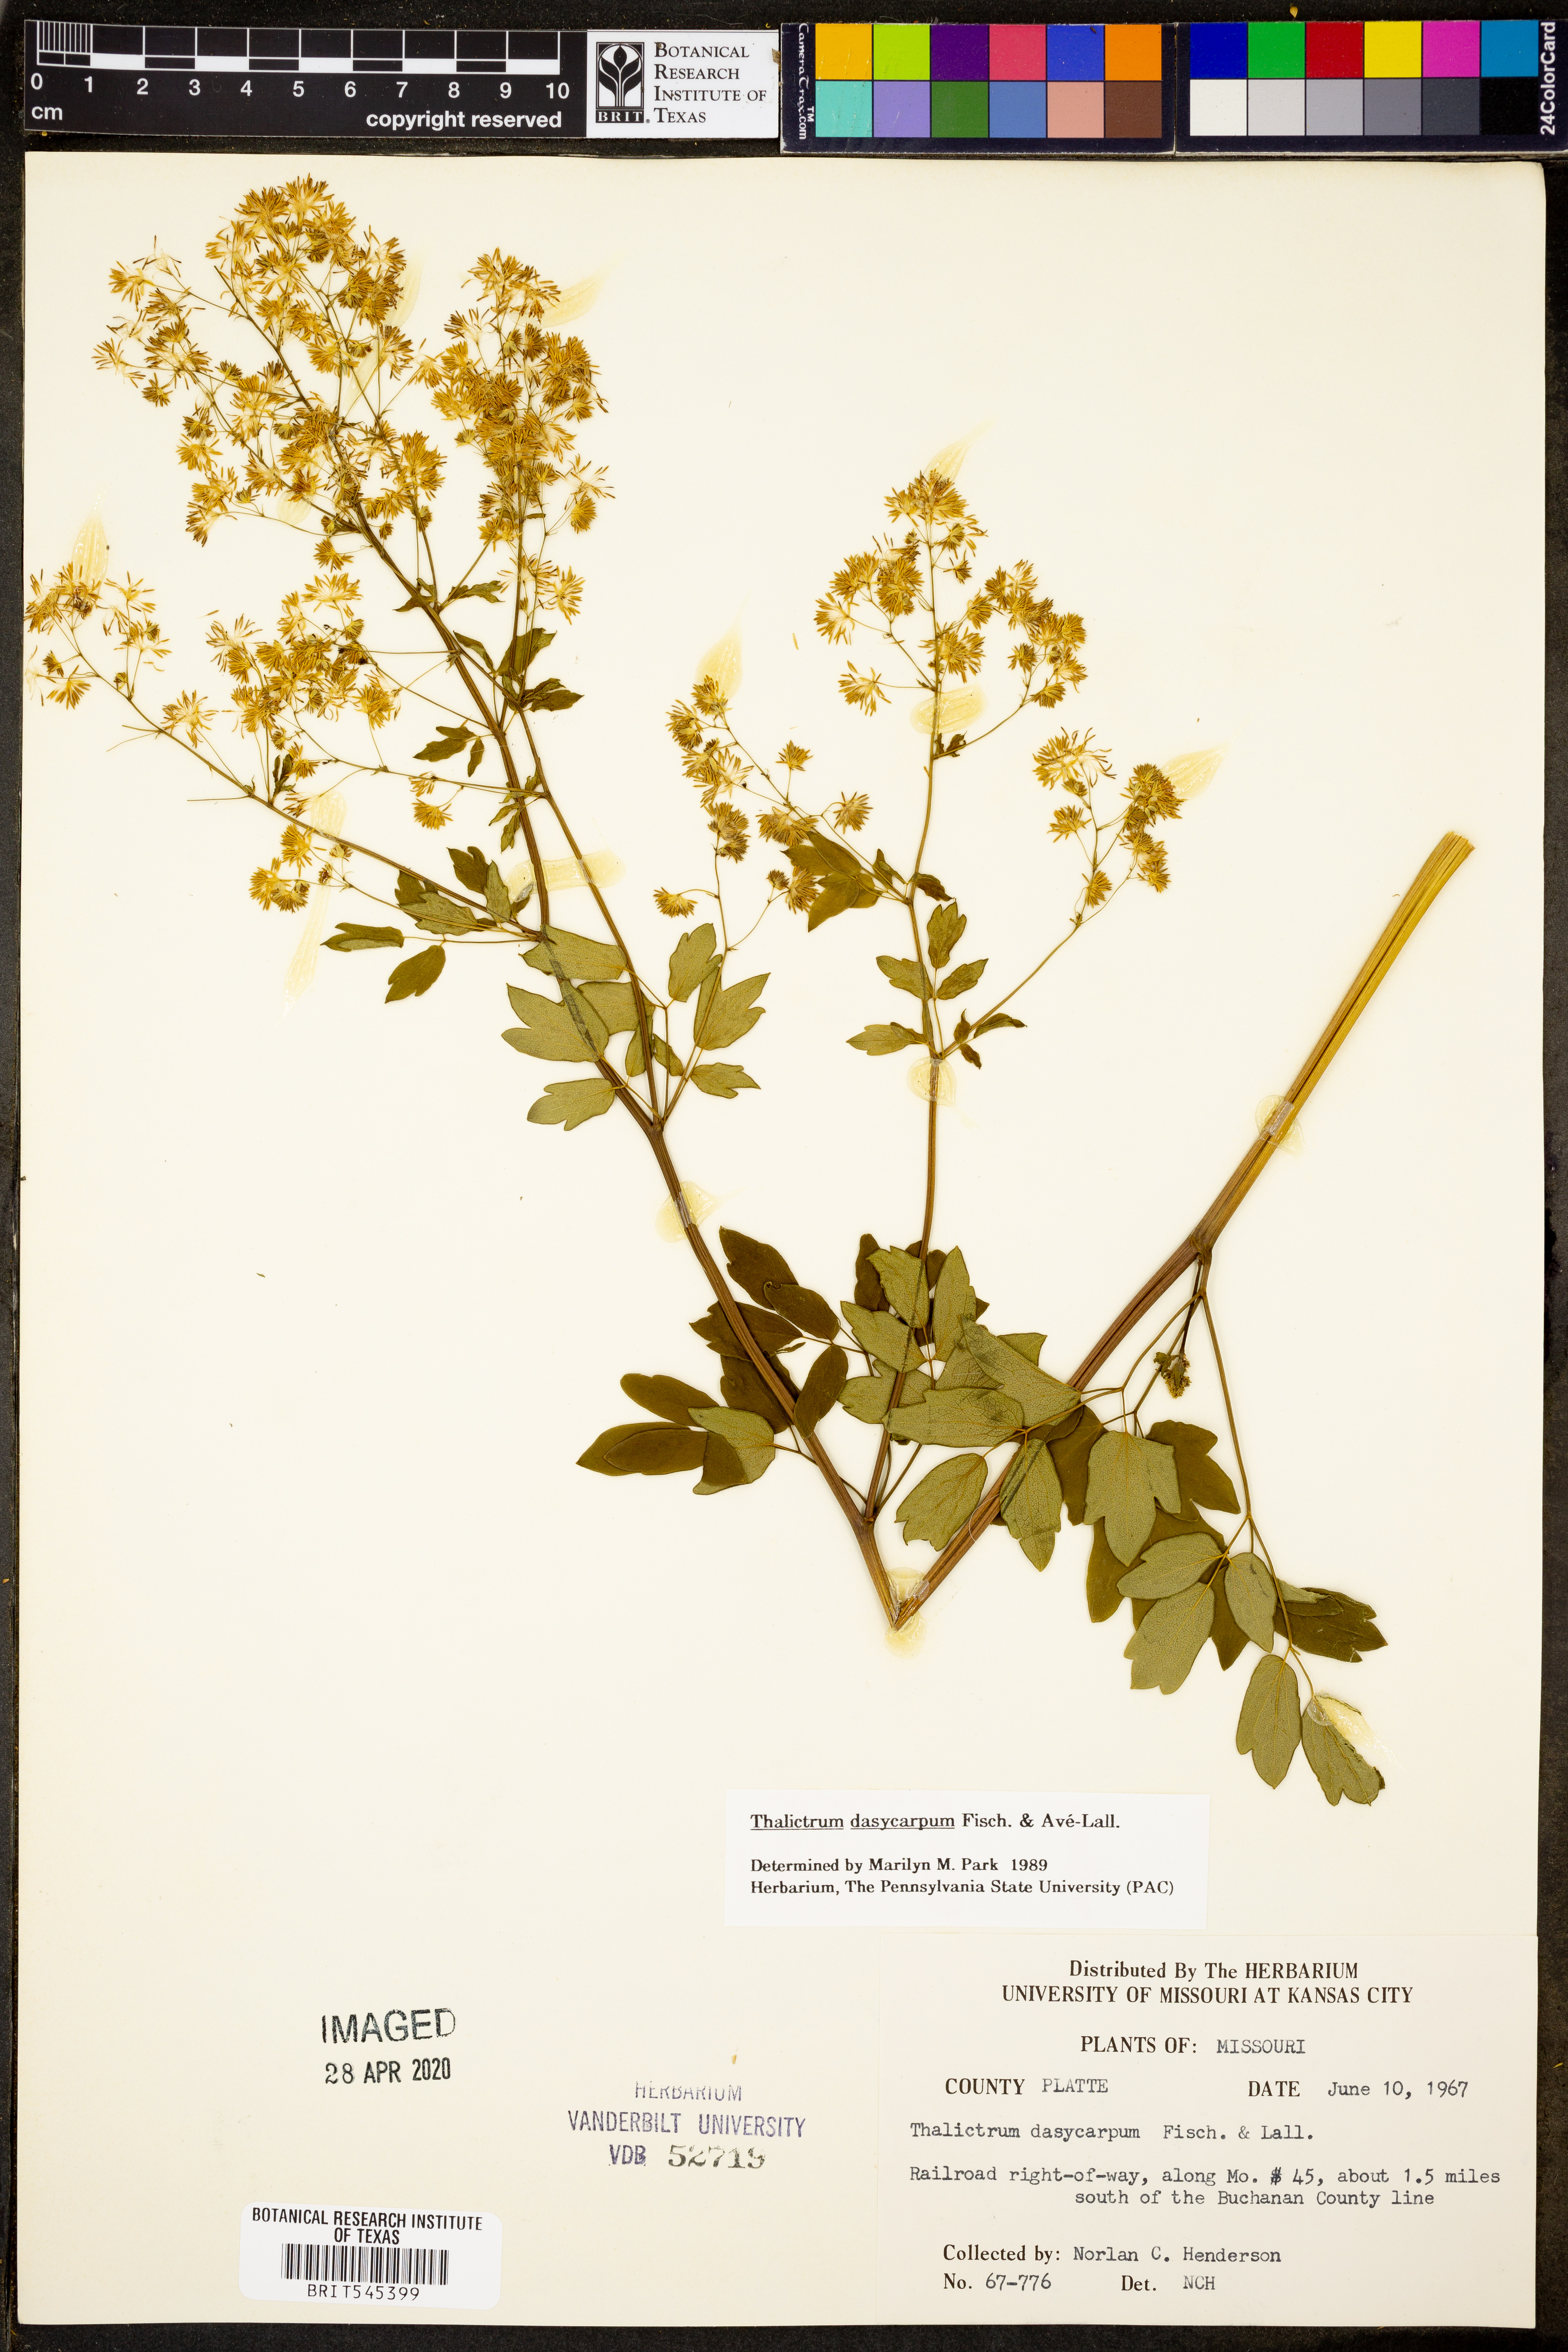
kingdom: Plantae
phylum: Tracheophyta
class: Magnoliopsida
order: Ranunculales
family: Ranunculaceae
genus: Thalictrum
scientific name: Thalictrum dasycarpum
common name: Purple meadow-rue
